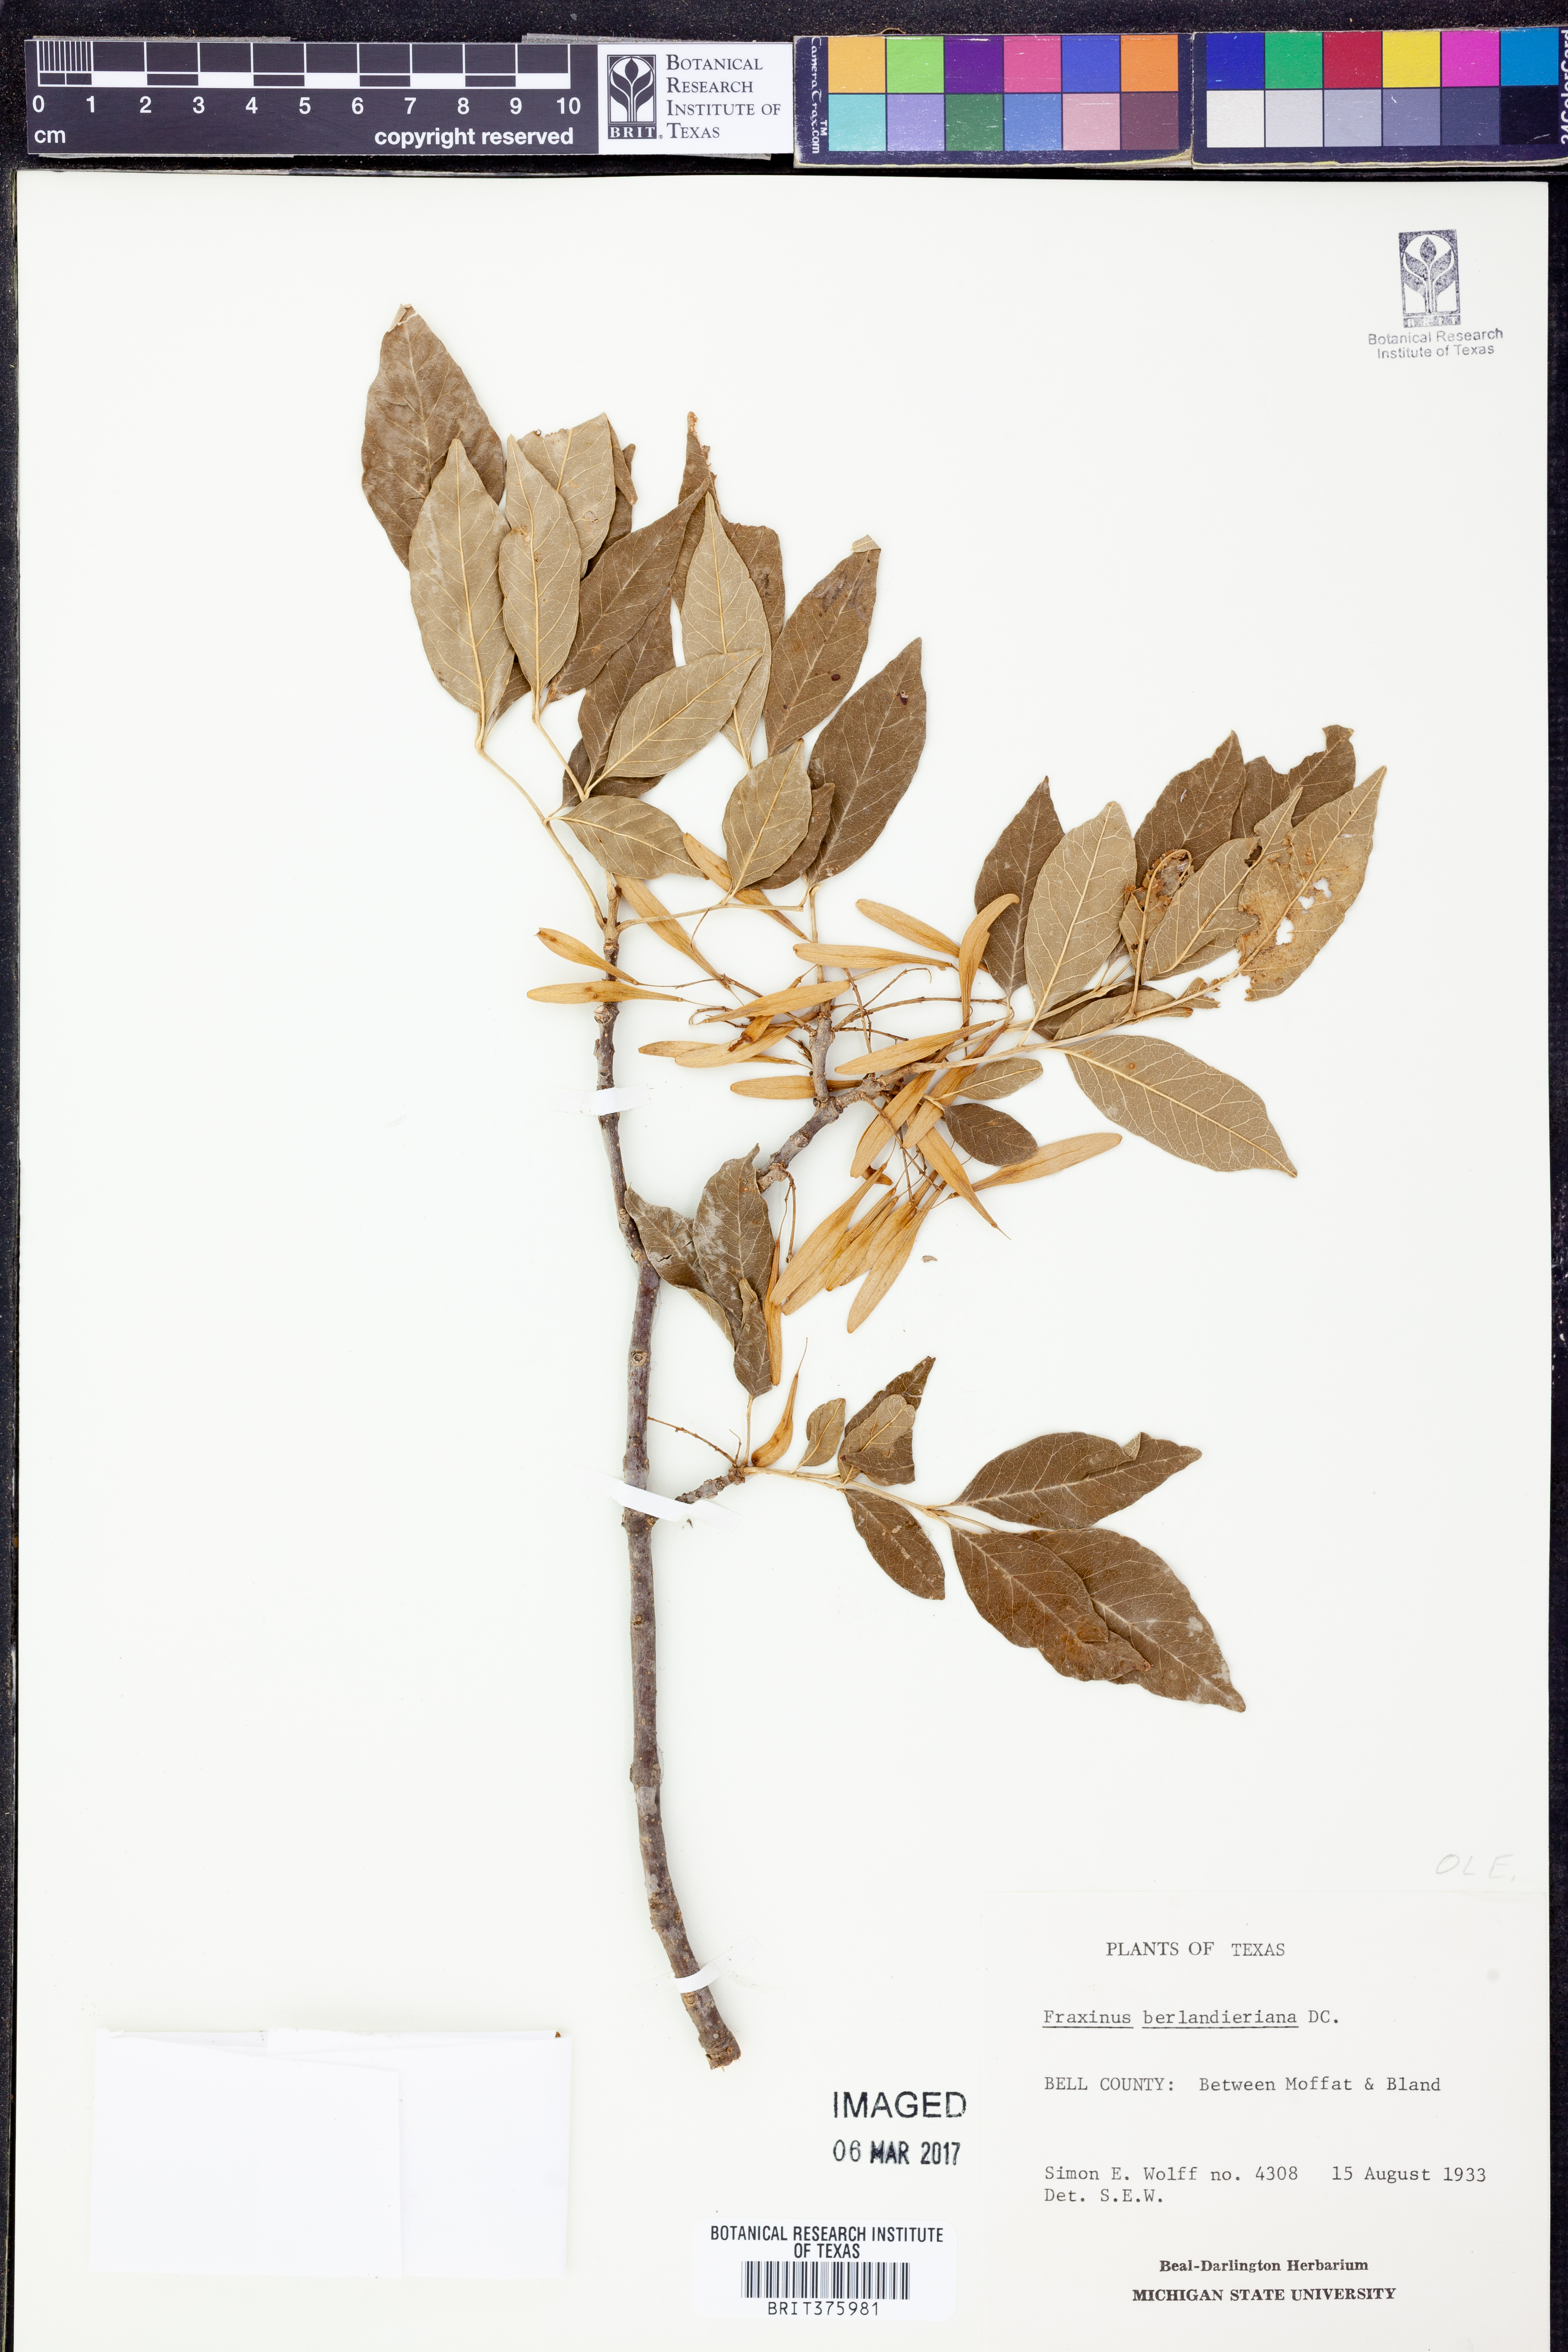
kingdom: Plantae
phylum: Tracheophyta
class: Magnoliopsida
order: Lamiales
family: Oleaceae
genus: Fraxinus
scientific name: Fraxinus berlandieriana
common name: Berlandier ash
